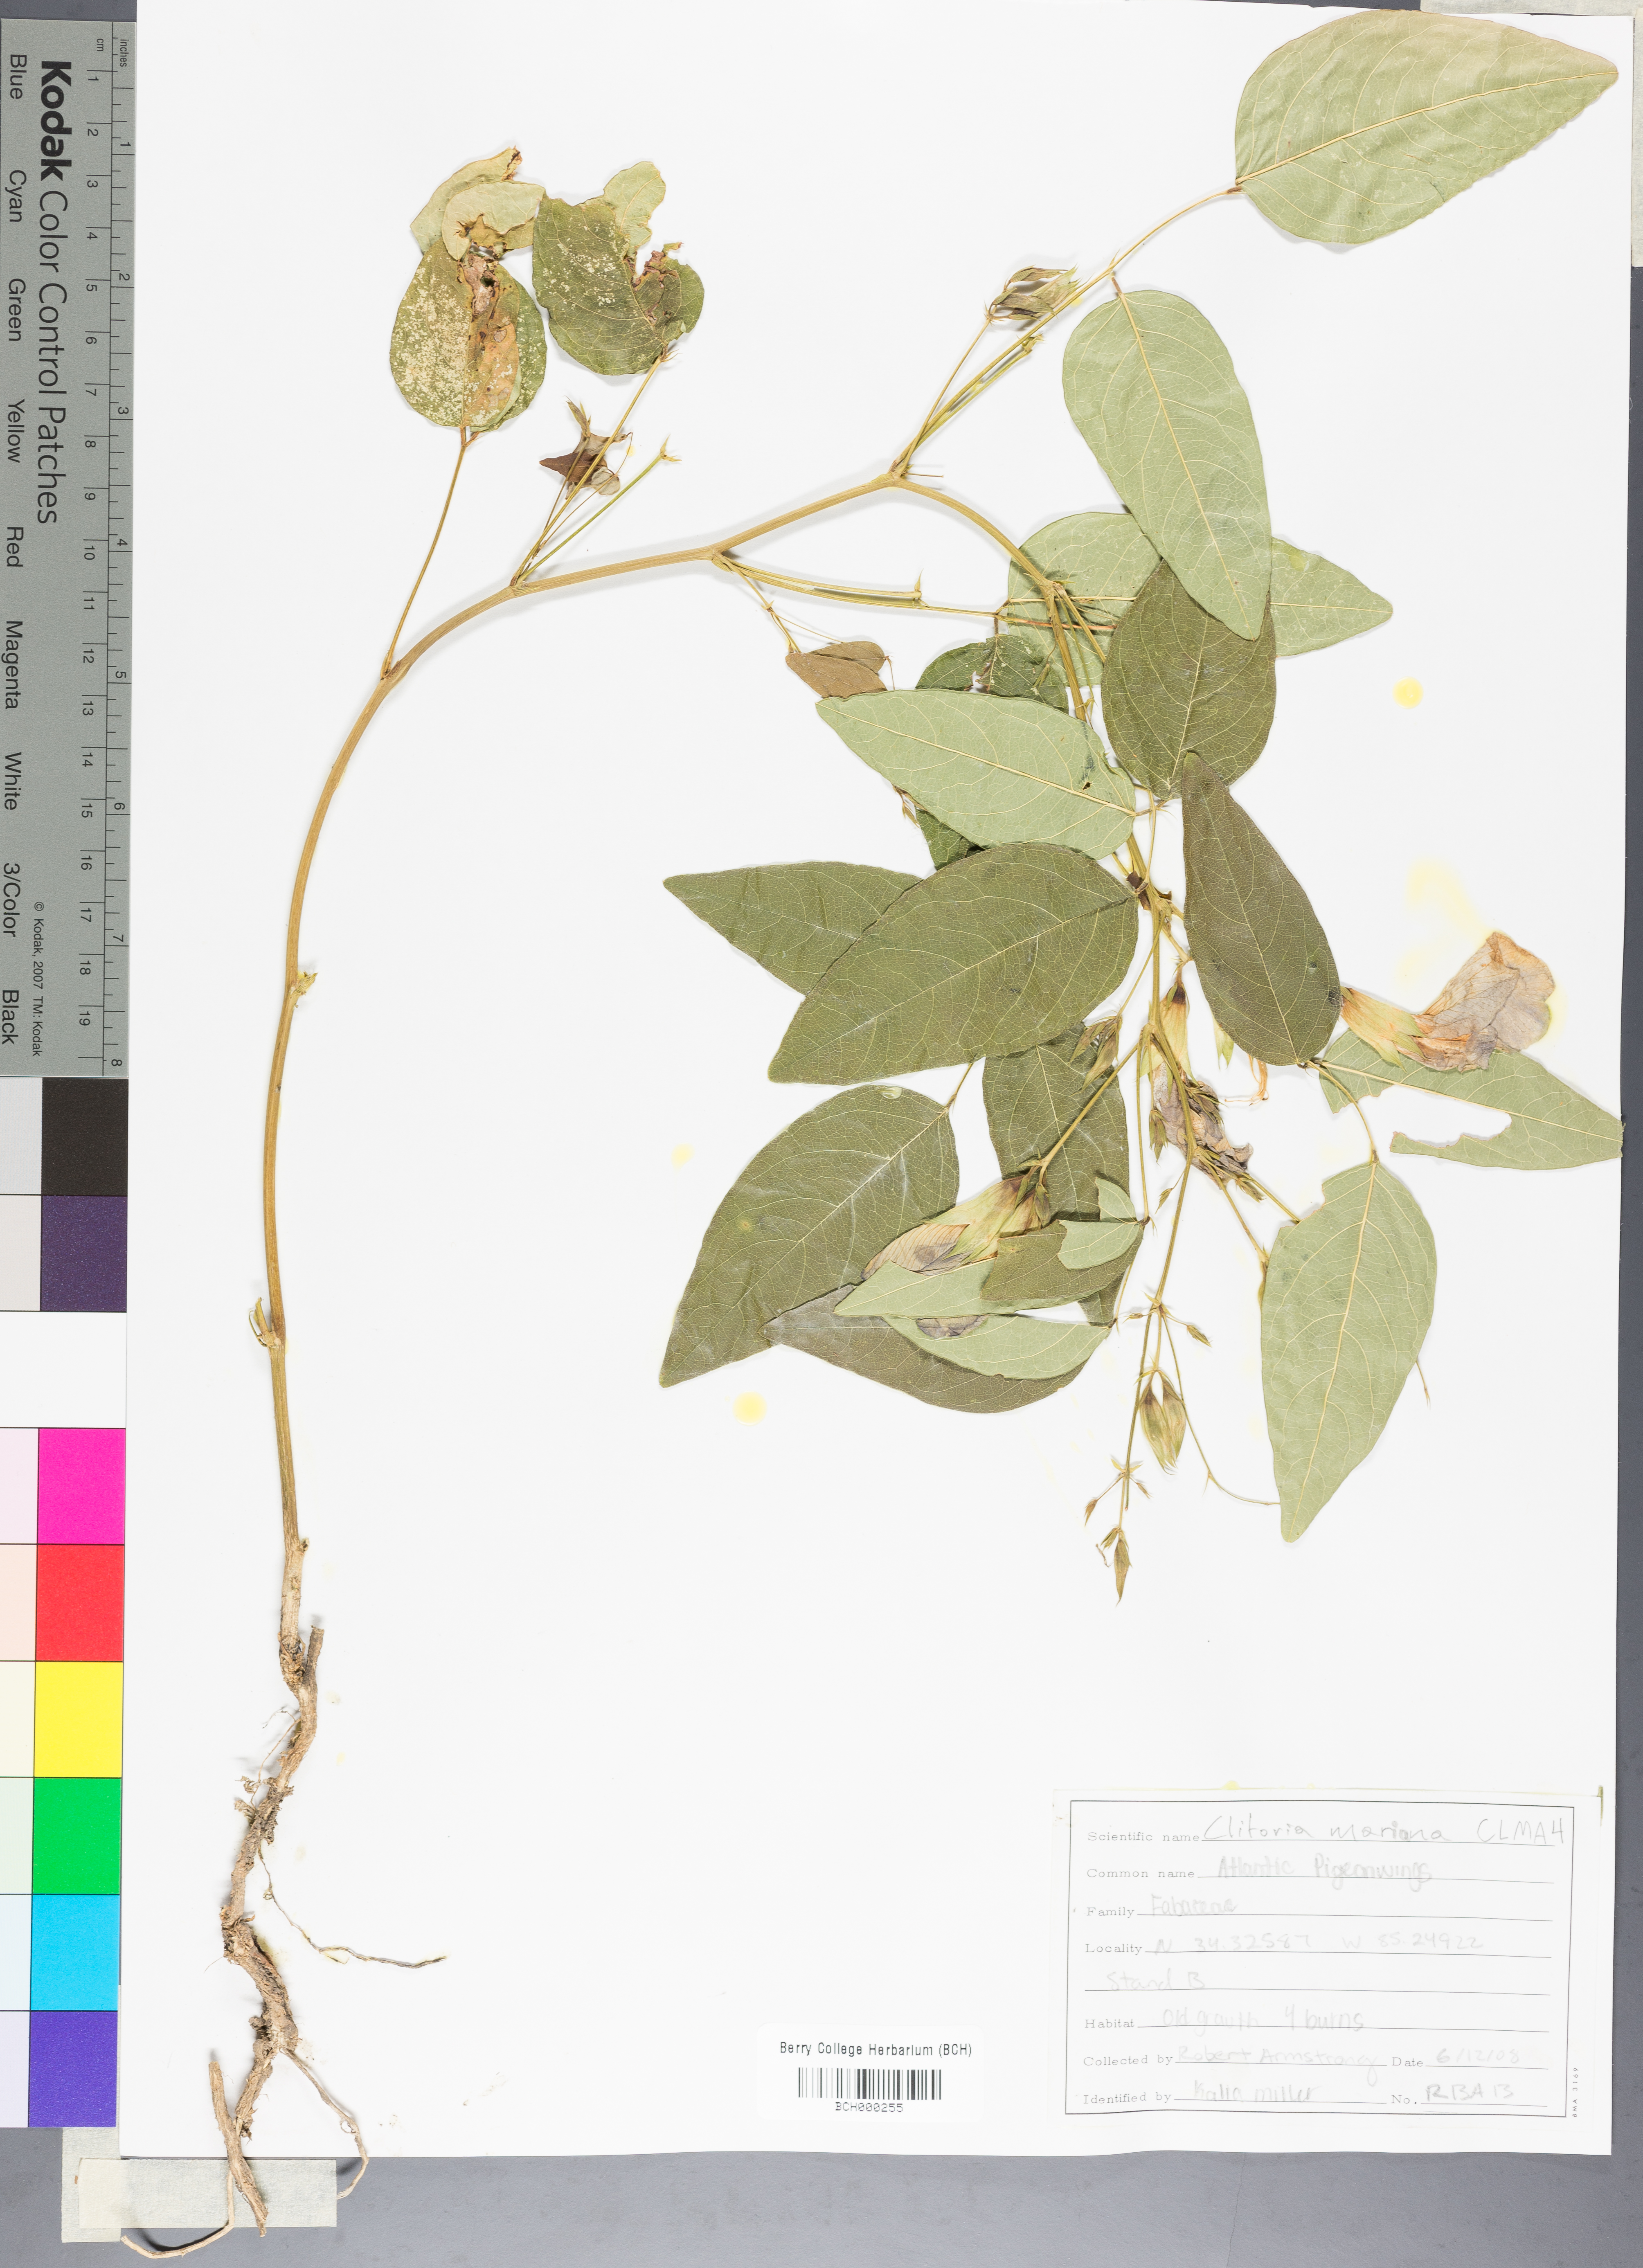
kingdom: Plantae
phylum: Tracheophyta
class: Magnoliopsida
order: Fabales
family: Fabaceae
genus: Clitoria
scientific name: Clitoria mariana
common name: Butterfly-pea
